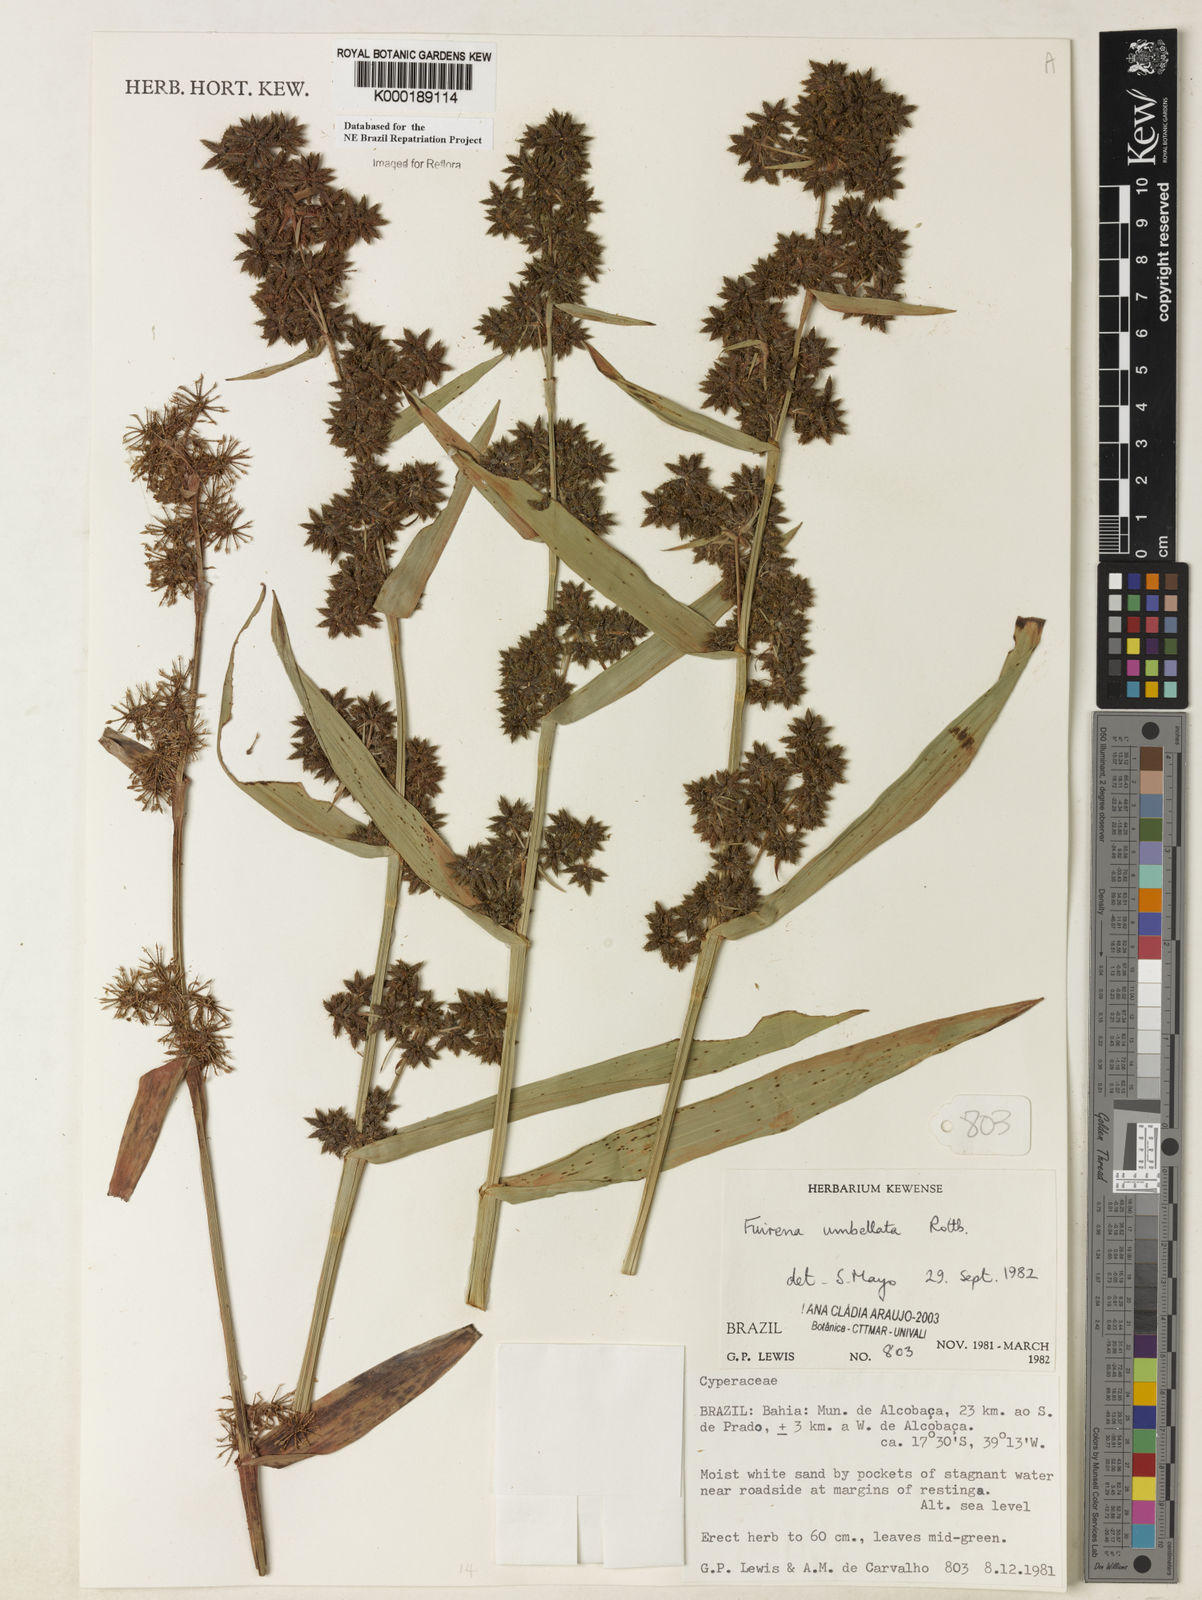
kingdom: Plantae
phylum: Tracheophyta
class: Liliopsida
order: Poales
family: Cyperaceae
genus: Fuirena
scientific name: Fuirena umbellata
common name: Yefen
